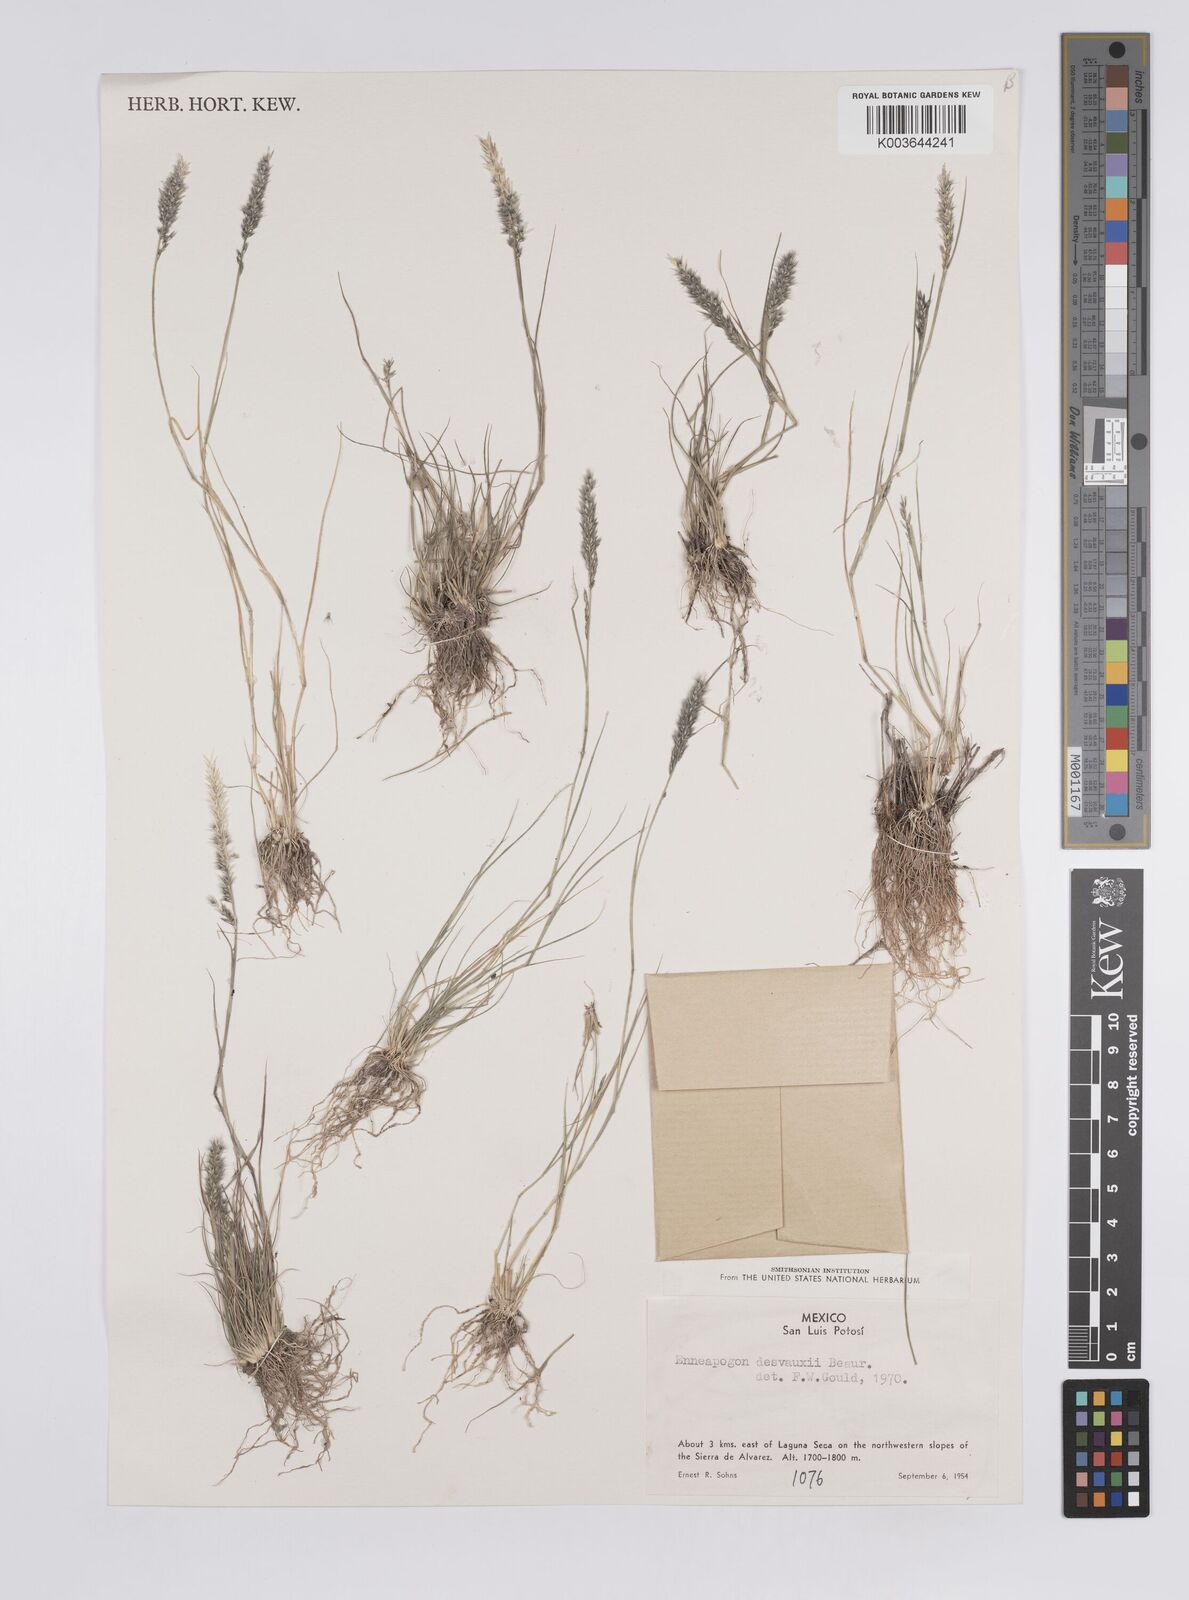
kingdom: Plantae
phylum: Tracheophyta
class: Liliopsida
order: Poales
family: Poaceae
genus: Enneapogon
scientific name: Enneapogon desvauxii
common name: Feather pappus grass
